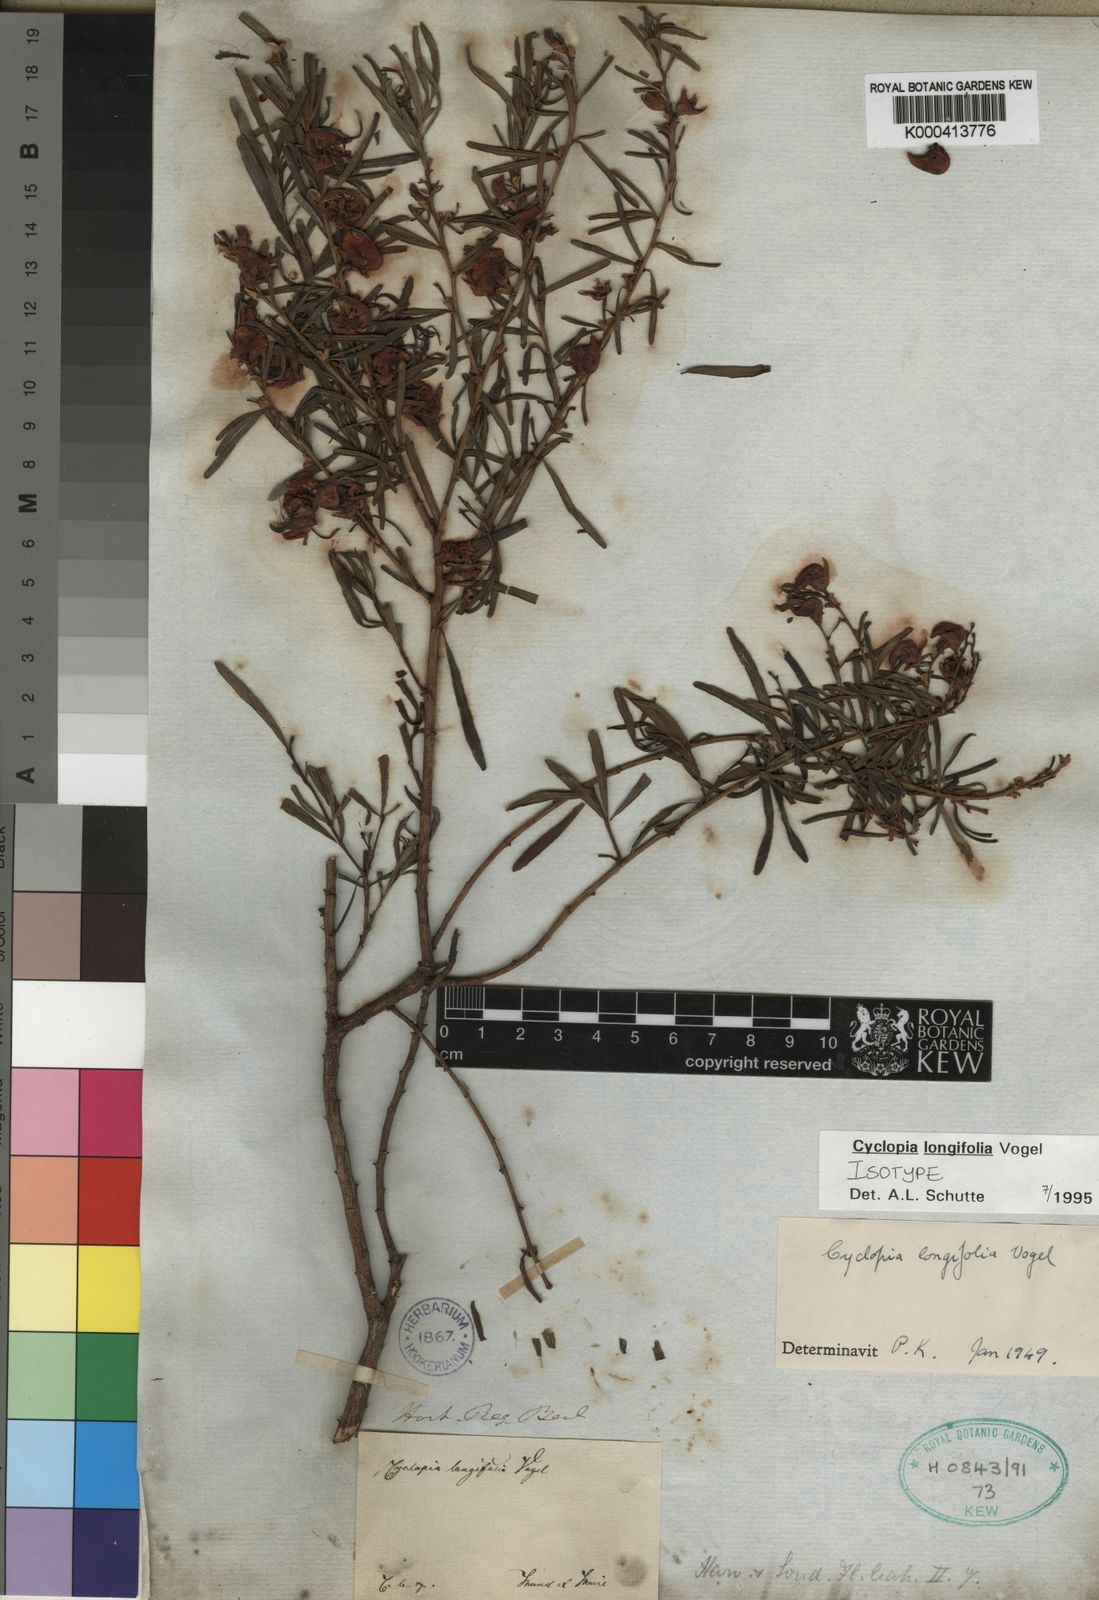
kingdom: Plantae
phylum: Tracheophyta
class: Magnoliopsida
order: Fabales
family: Fabaceae
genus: Cyclopia
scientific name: Cyclopia longifolia
